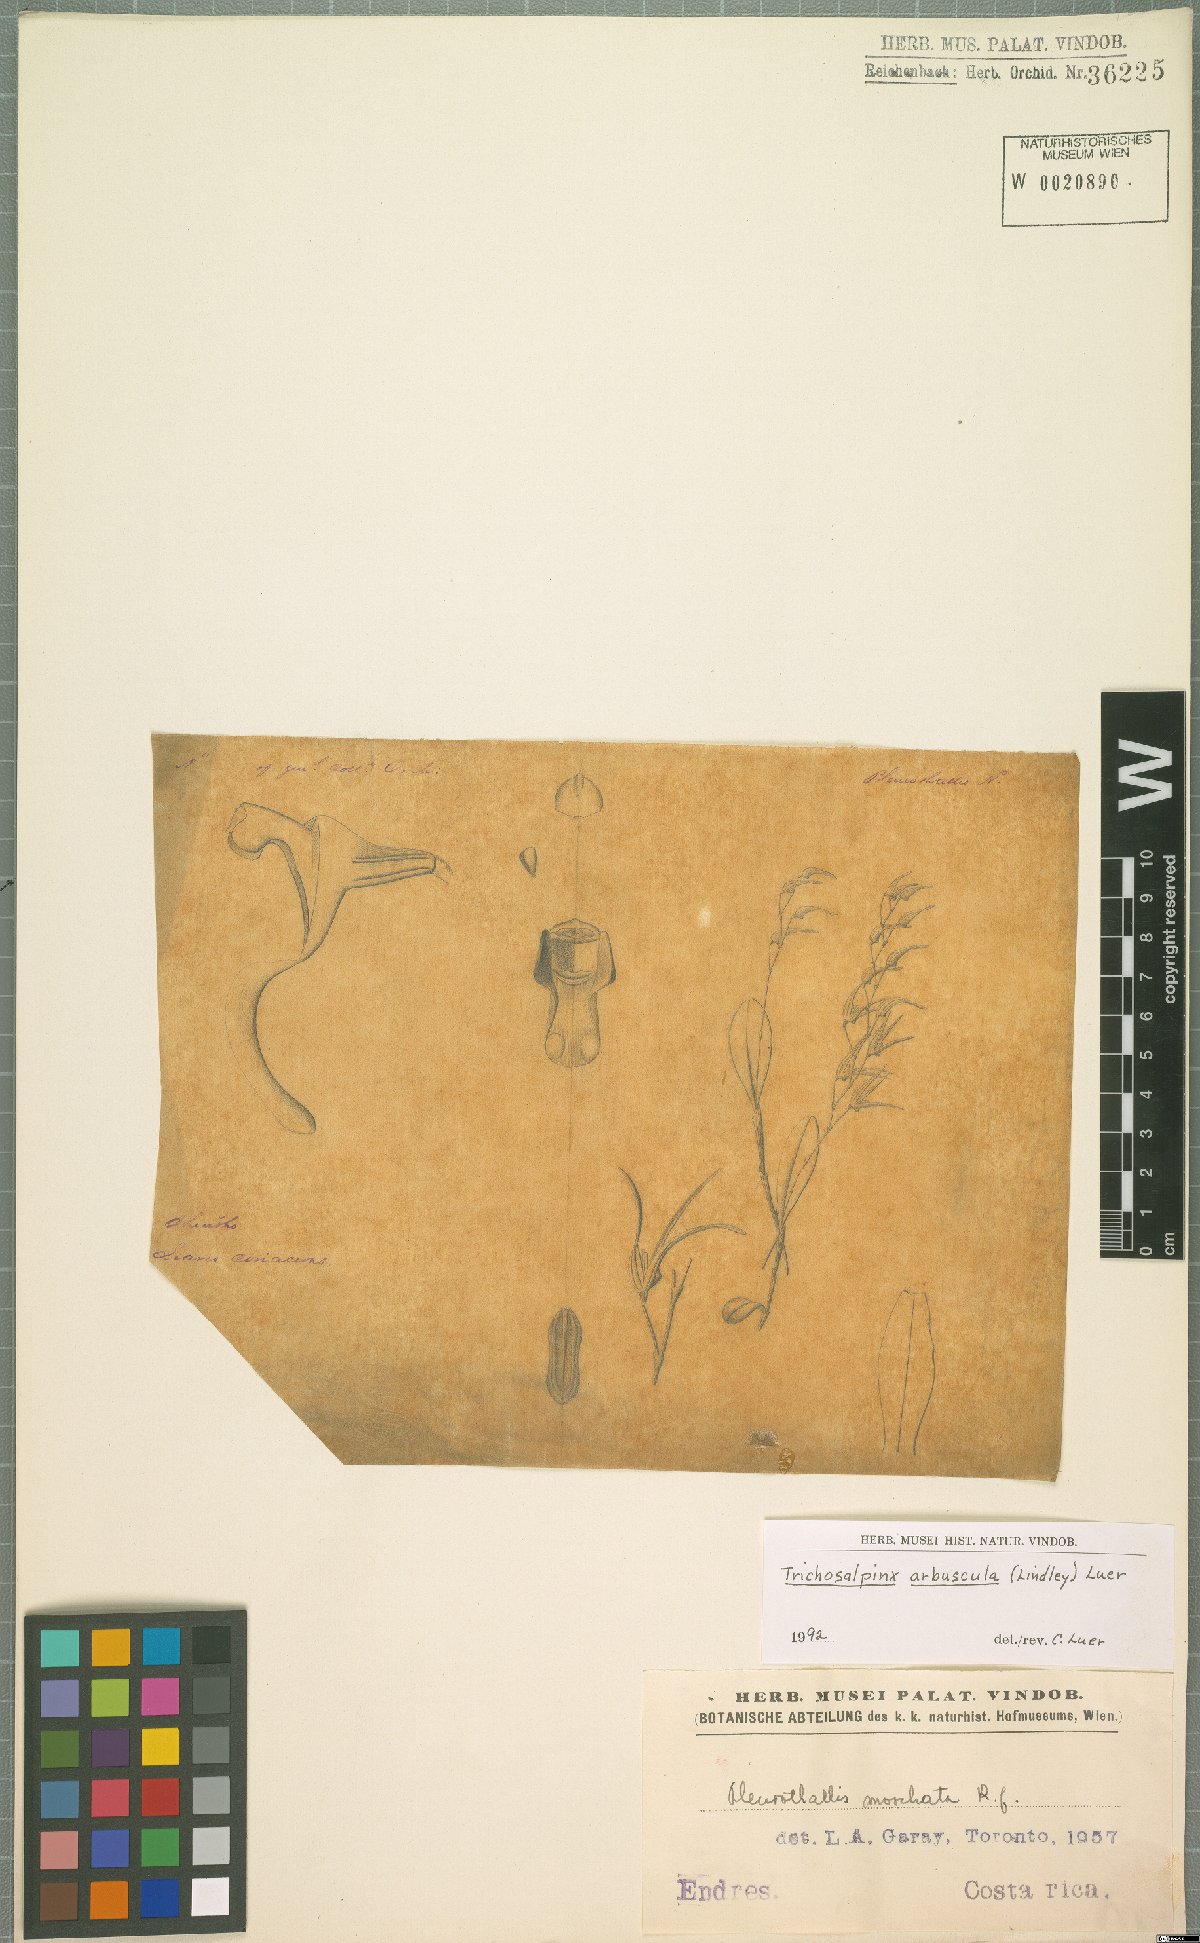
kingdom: Plantae
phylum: Tracheophyta
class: Liliopsida
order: Asparagales
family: Orchidaceae
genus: Trichosalpinx
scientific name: Trichosalpinx arbuscula
